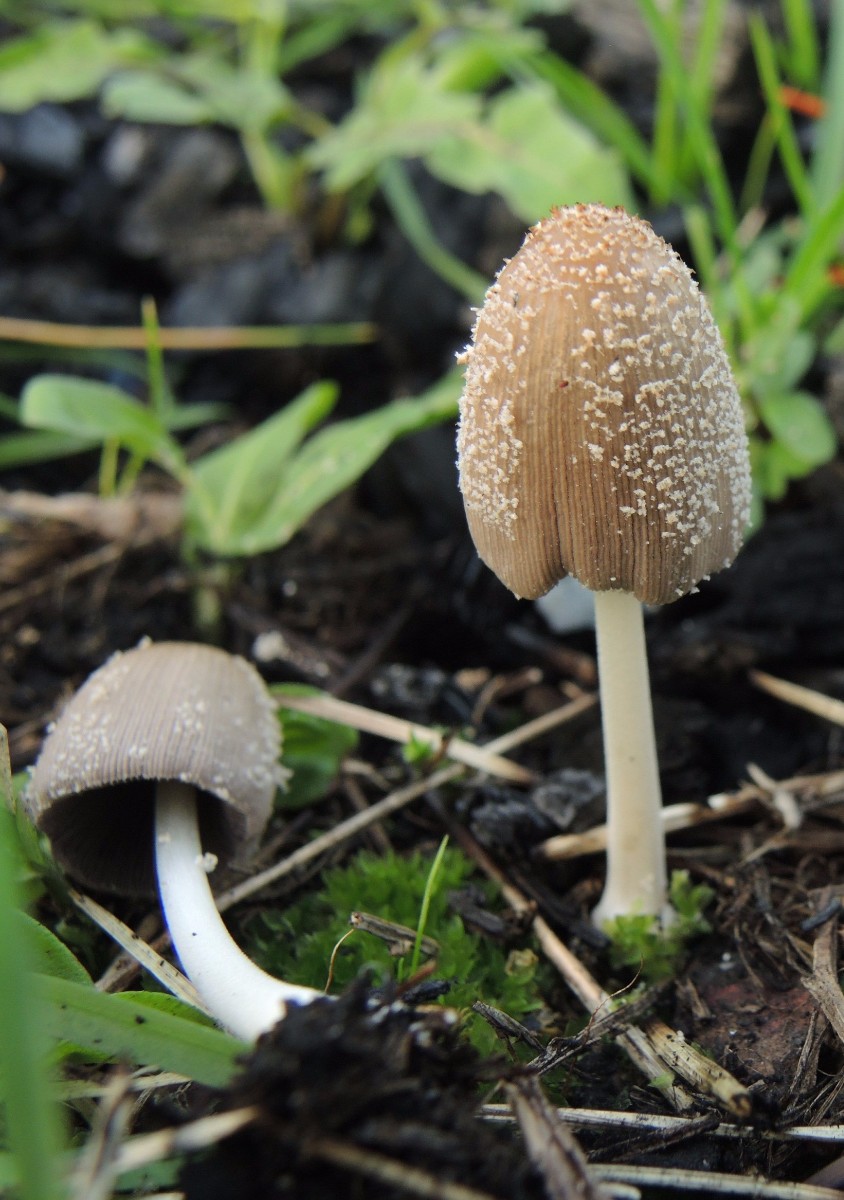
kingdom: Fungi
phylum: Basidiomycota
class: Agaricomycetes
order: Agaricales
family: Psathyrellaceae
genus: Coprinellus
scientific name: Coprinellus radians
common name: grynet blækhat
